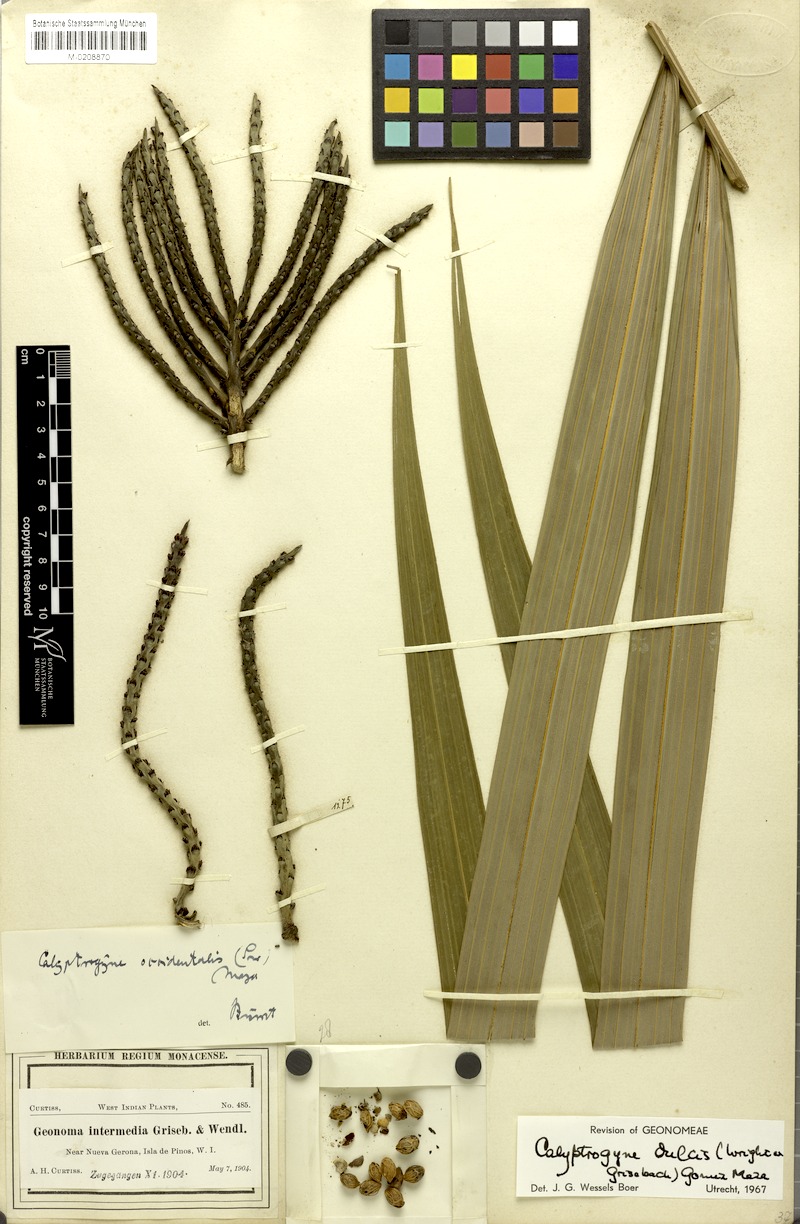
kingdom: Plantae
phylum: Tracheophyta
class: Liliopsida
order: Arecales
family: Arecaceae
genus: Calyptronoma
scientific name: Calyptronoma plumeriana
